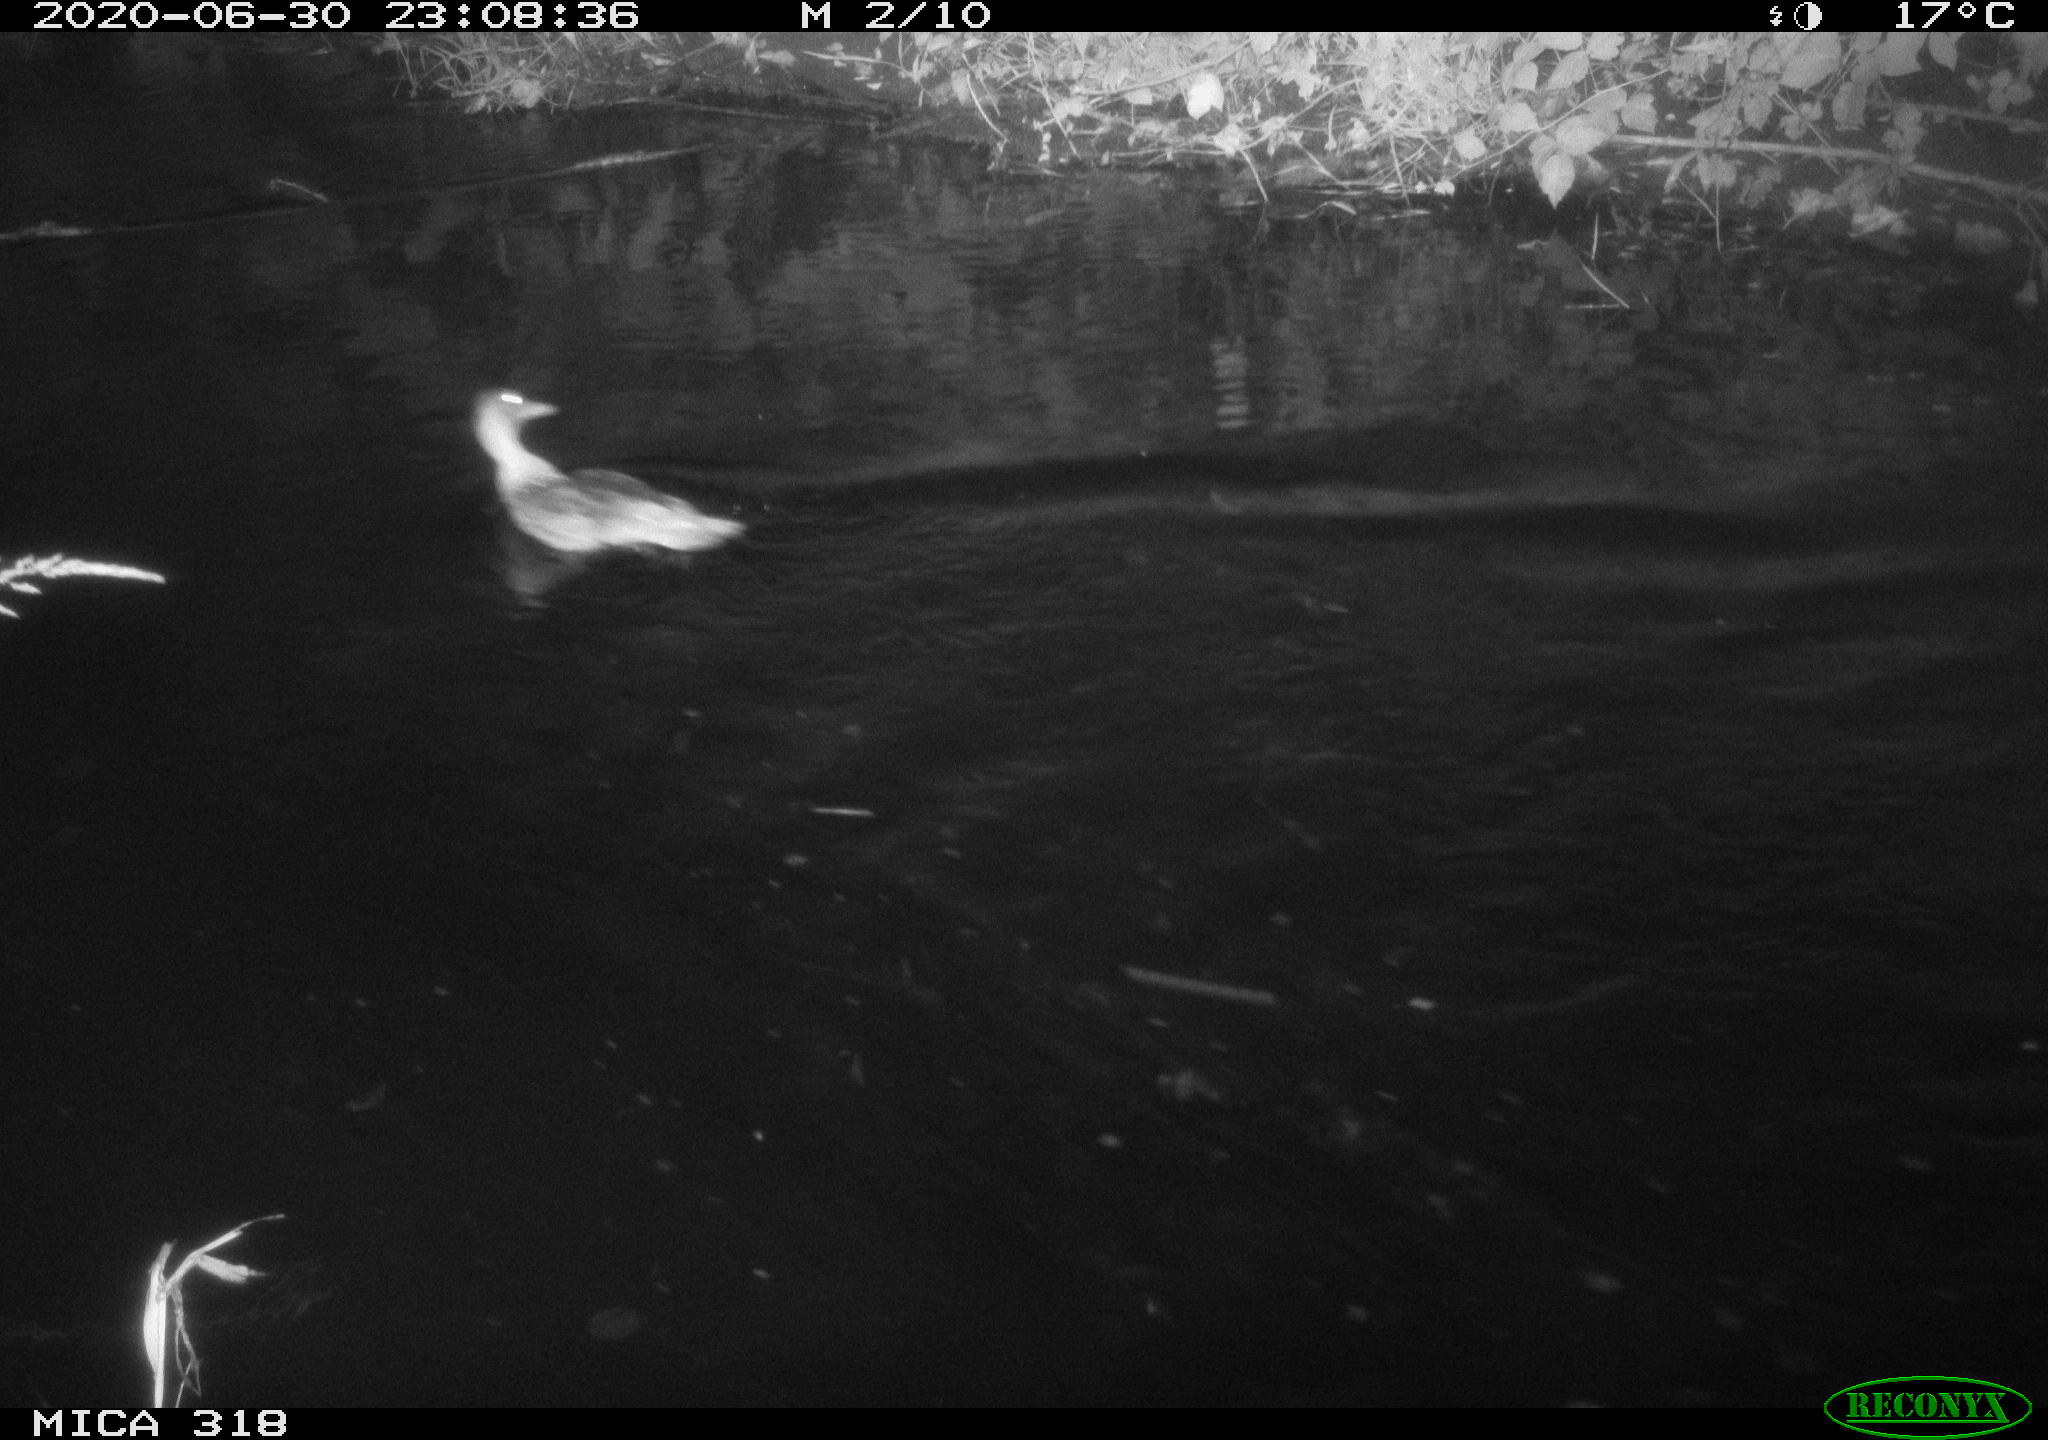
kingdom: Animalia
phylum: Chordata
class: Aves
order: Anseriformes
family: Anatidae
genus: Anas
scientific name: Anas platyrhynchos
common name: Mallard
